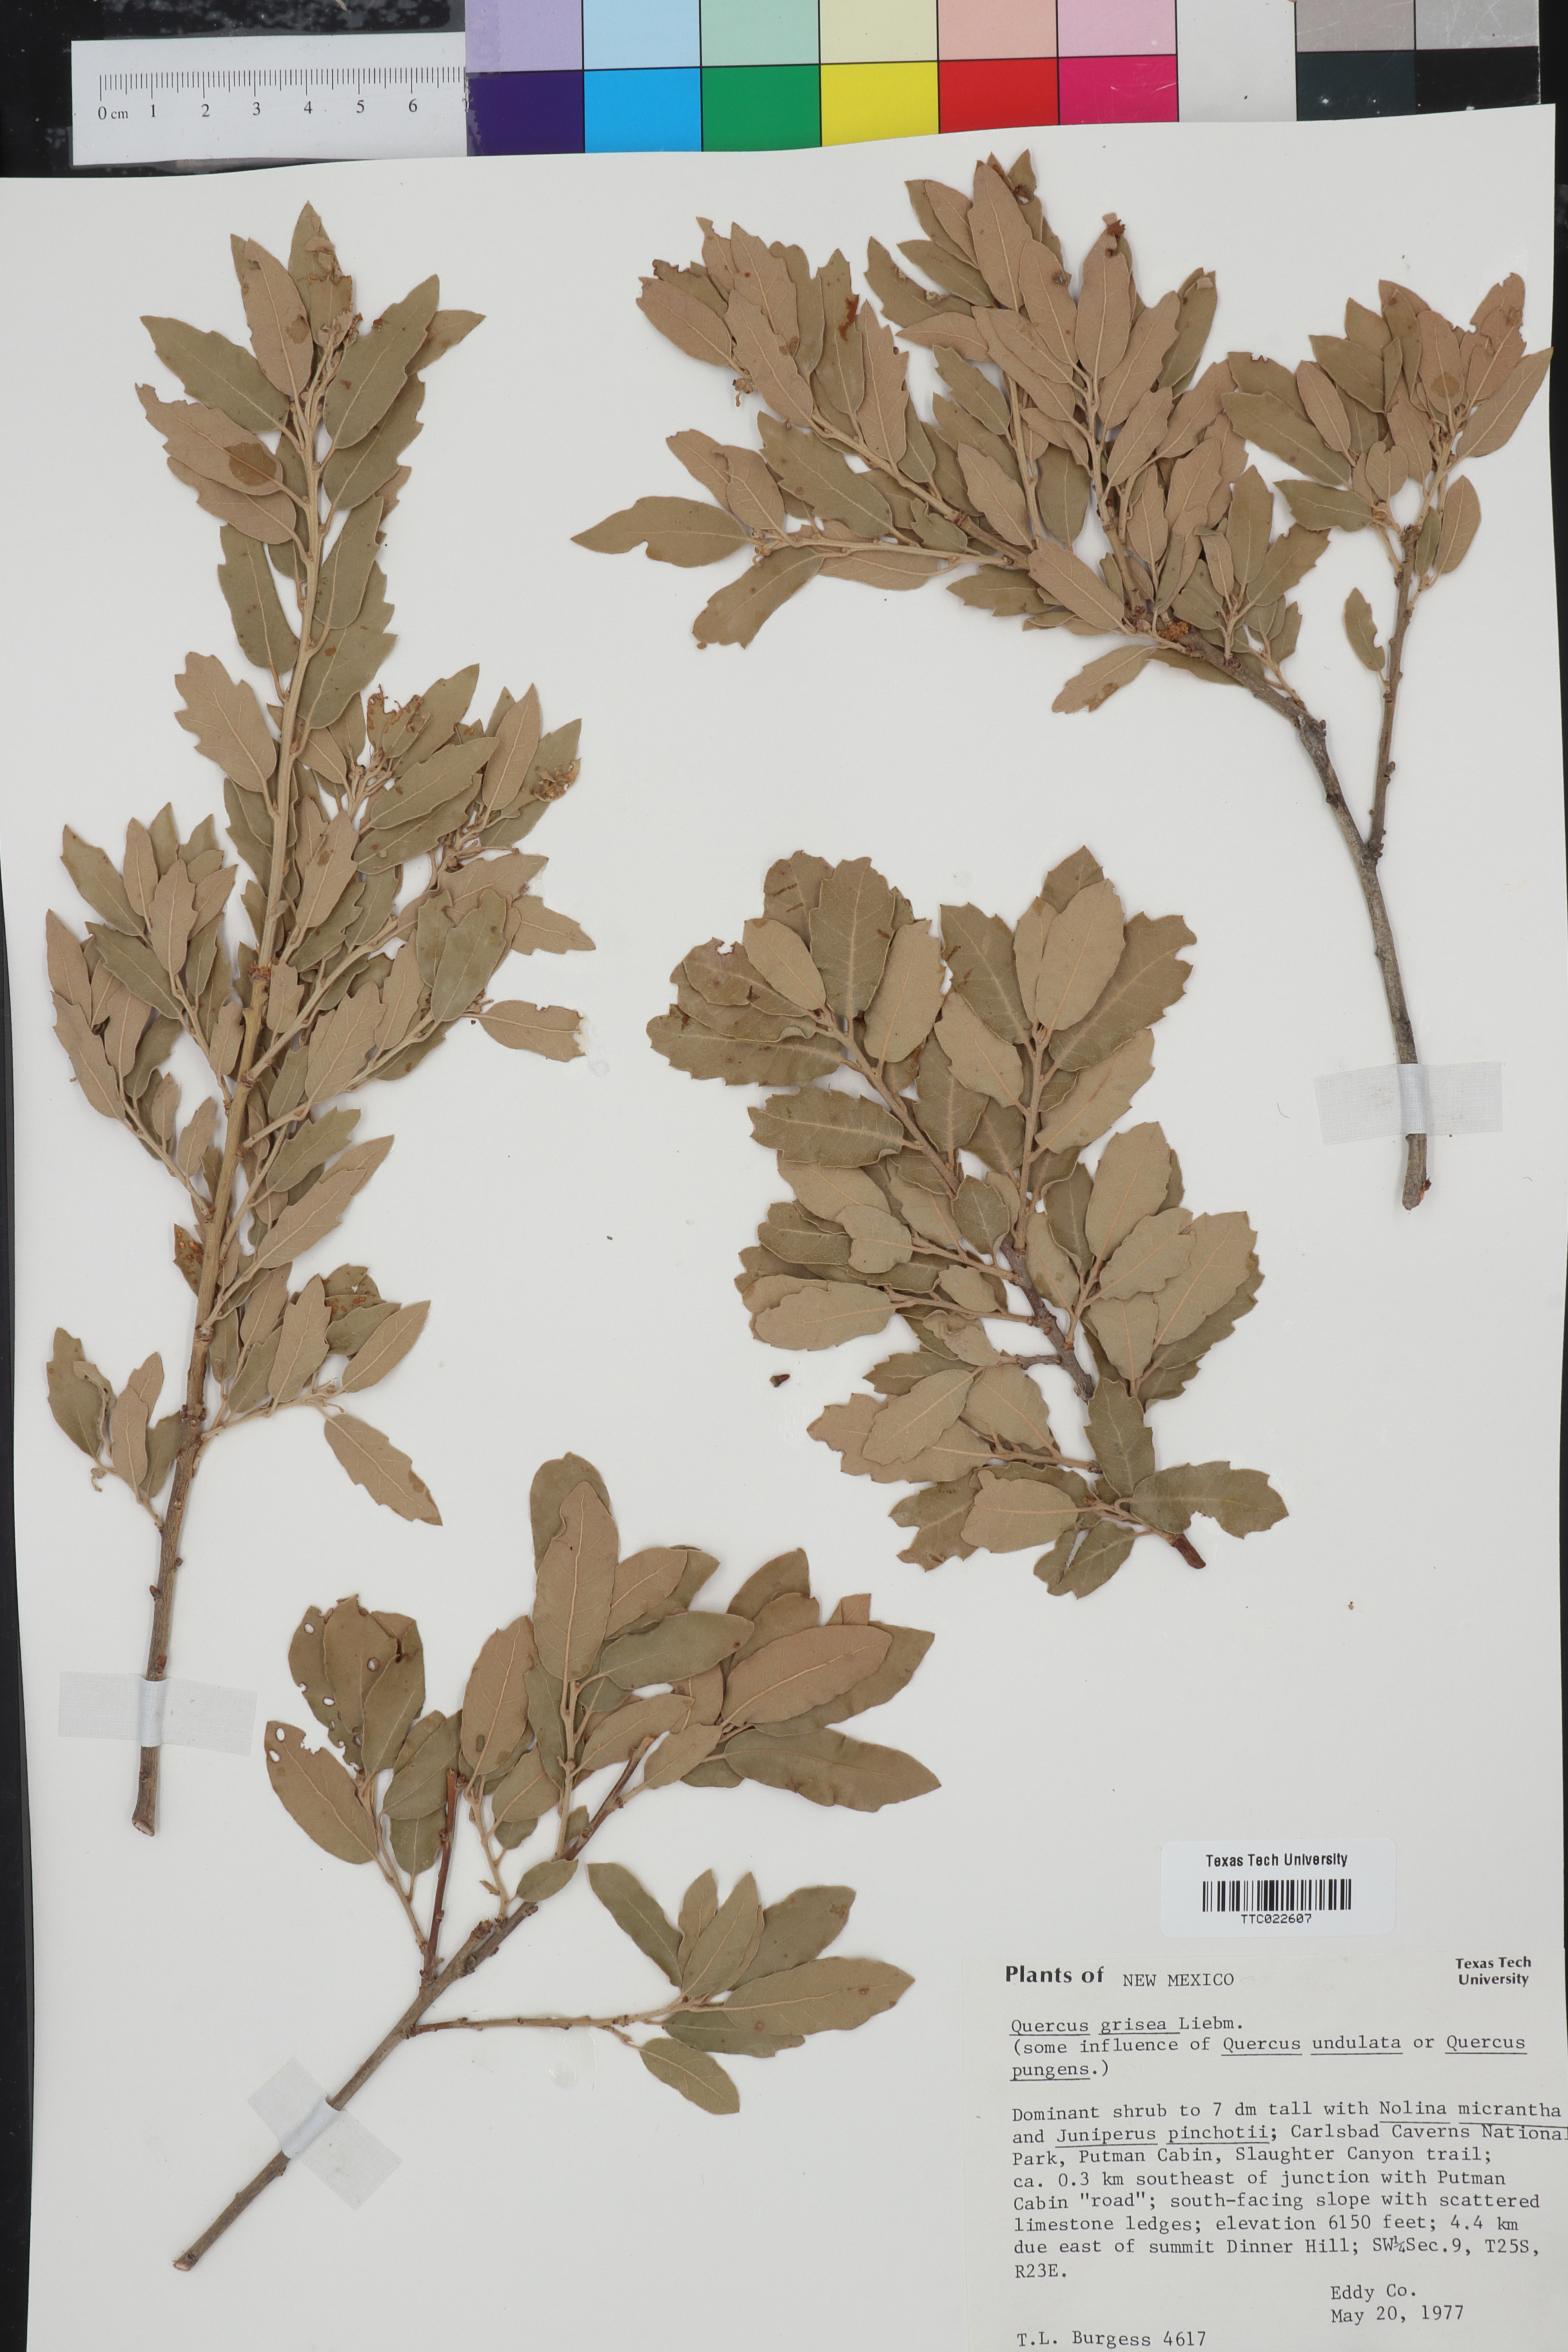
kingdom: Plantae
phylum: Tracheophyta
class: Magnoliopsida
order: Fagales
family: Fagaceae
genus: Quercus
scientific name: Quercus grisea
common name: Gray oak
